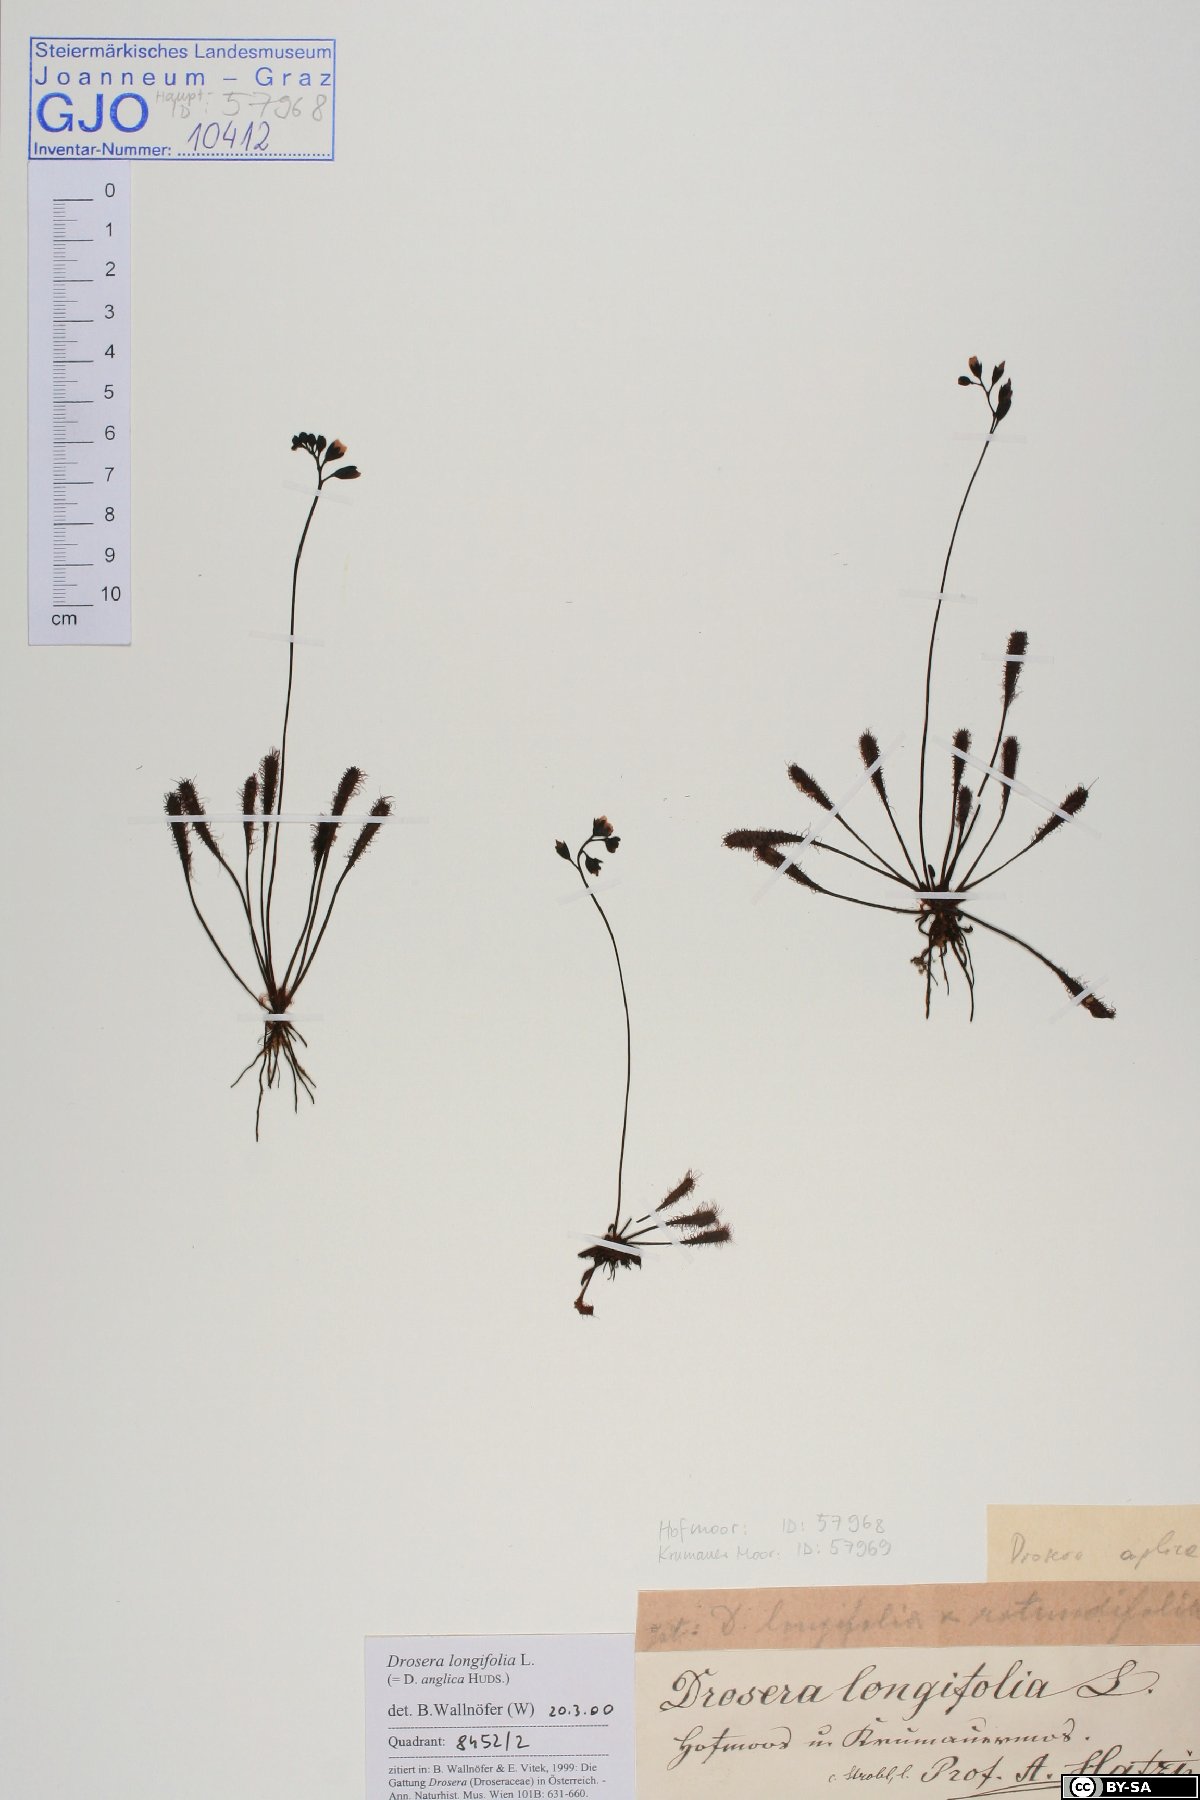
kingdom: Plantae
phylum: Tracheophyta
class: Magnoliopsida
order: Caryophyllales
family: Droseraceae
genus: Drosera
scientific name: Drosera anglica
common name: Great sundew
